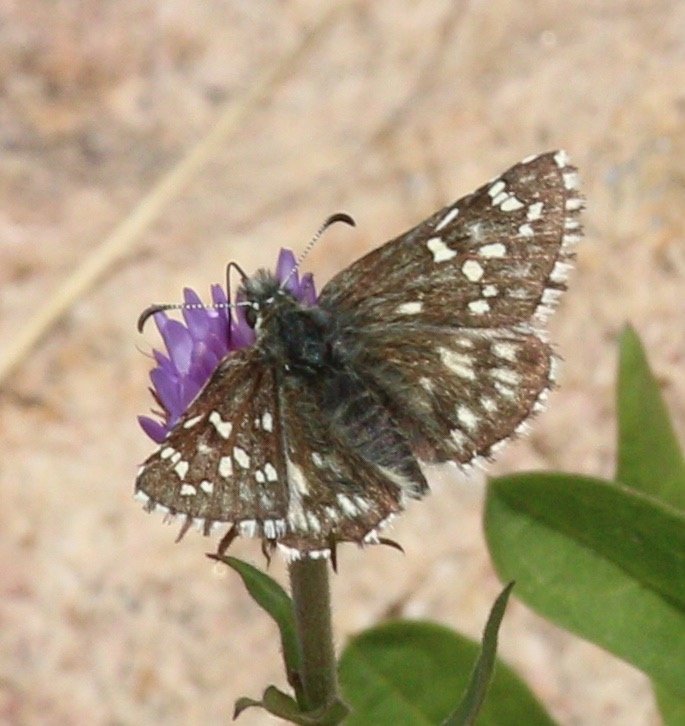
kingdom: Animalia
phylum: Arthropoda
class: Insecta
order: Lepidoptera
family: Hesperiidae
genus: Pyrgus
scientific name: Pyrgus centaureae
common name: Grizzled Skipper
